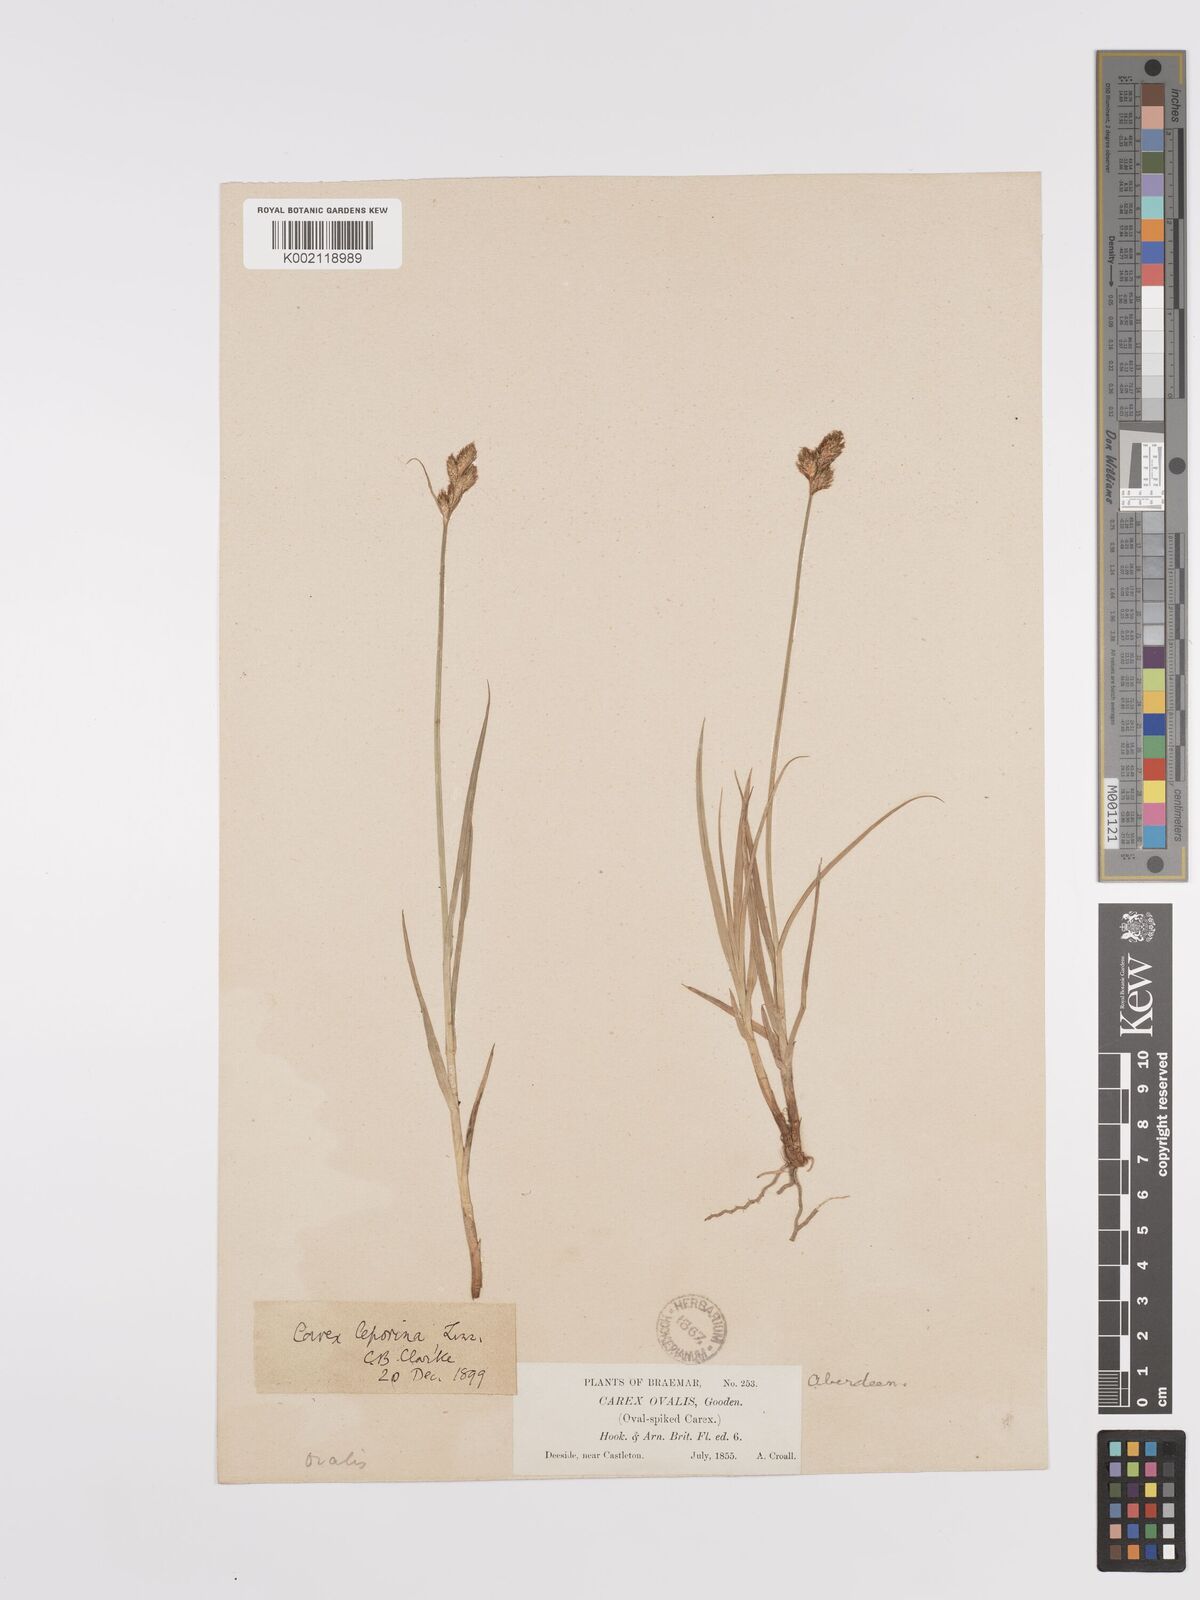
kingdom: Plantae
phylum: Tracheophyta
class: Liliopsida
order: Poales
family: Cyperaceae
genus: Carex
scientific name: Carex leporina
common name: Oval sedge
